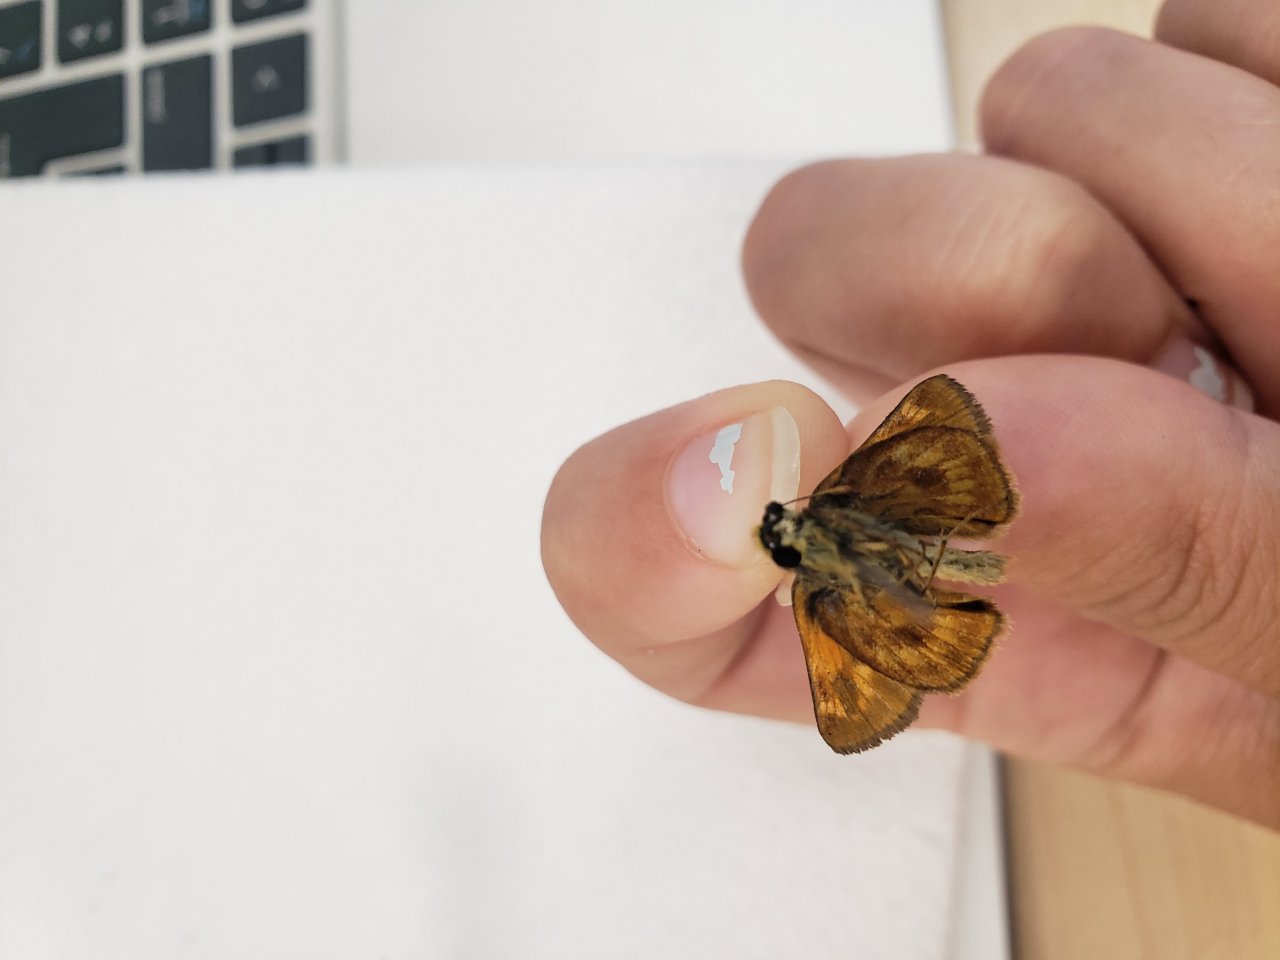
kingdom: Animalia
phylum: Arthropoda
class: Insecta
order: Lepidoptera
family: Hesperiidae
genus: Lon
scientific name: Lon hobomok
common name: Hobomok Skipper
